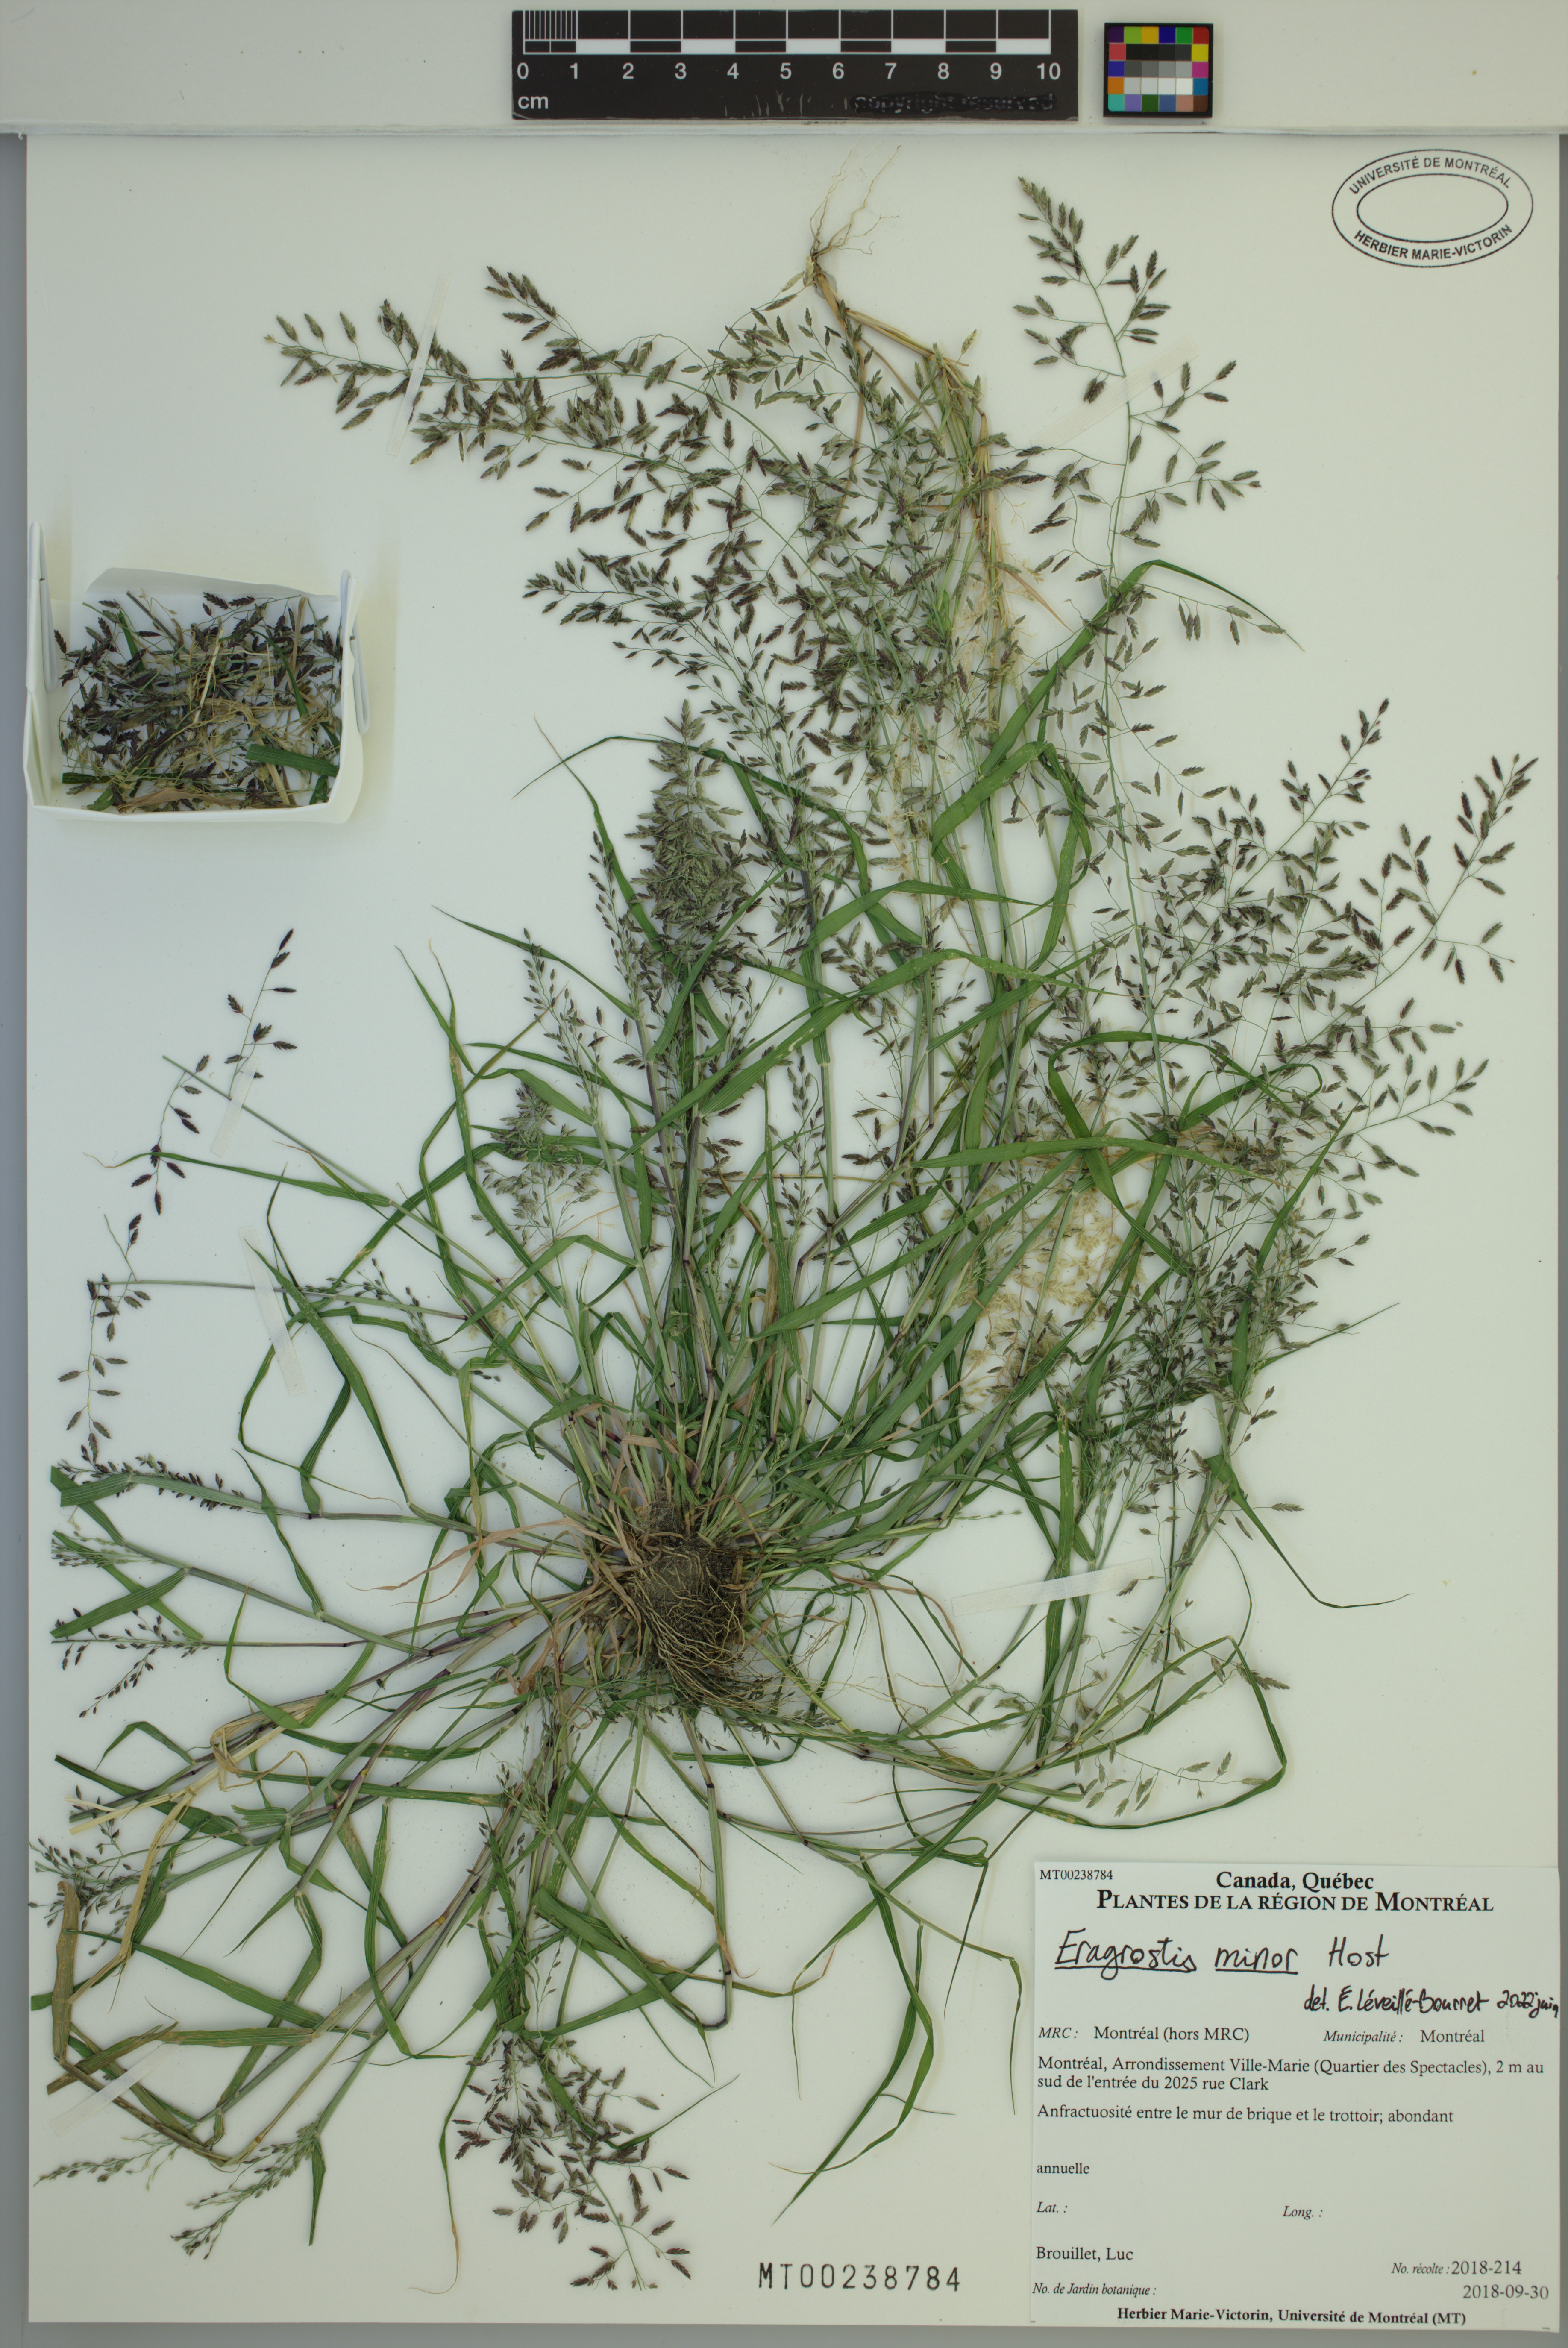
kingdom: Plantae
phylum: Tracheophyta
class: Liliopsida
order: Poales
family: Poaceae
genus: Eragrostis
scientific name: Eragrostis minor
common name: Small love-grass
